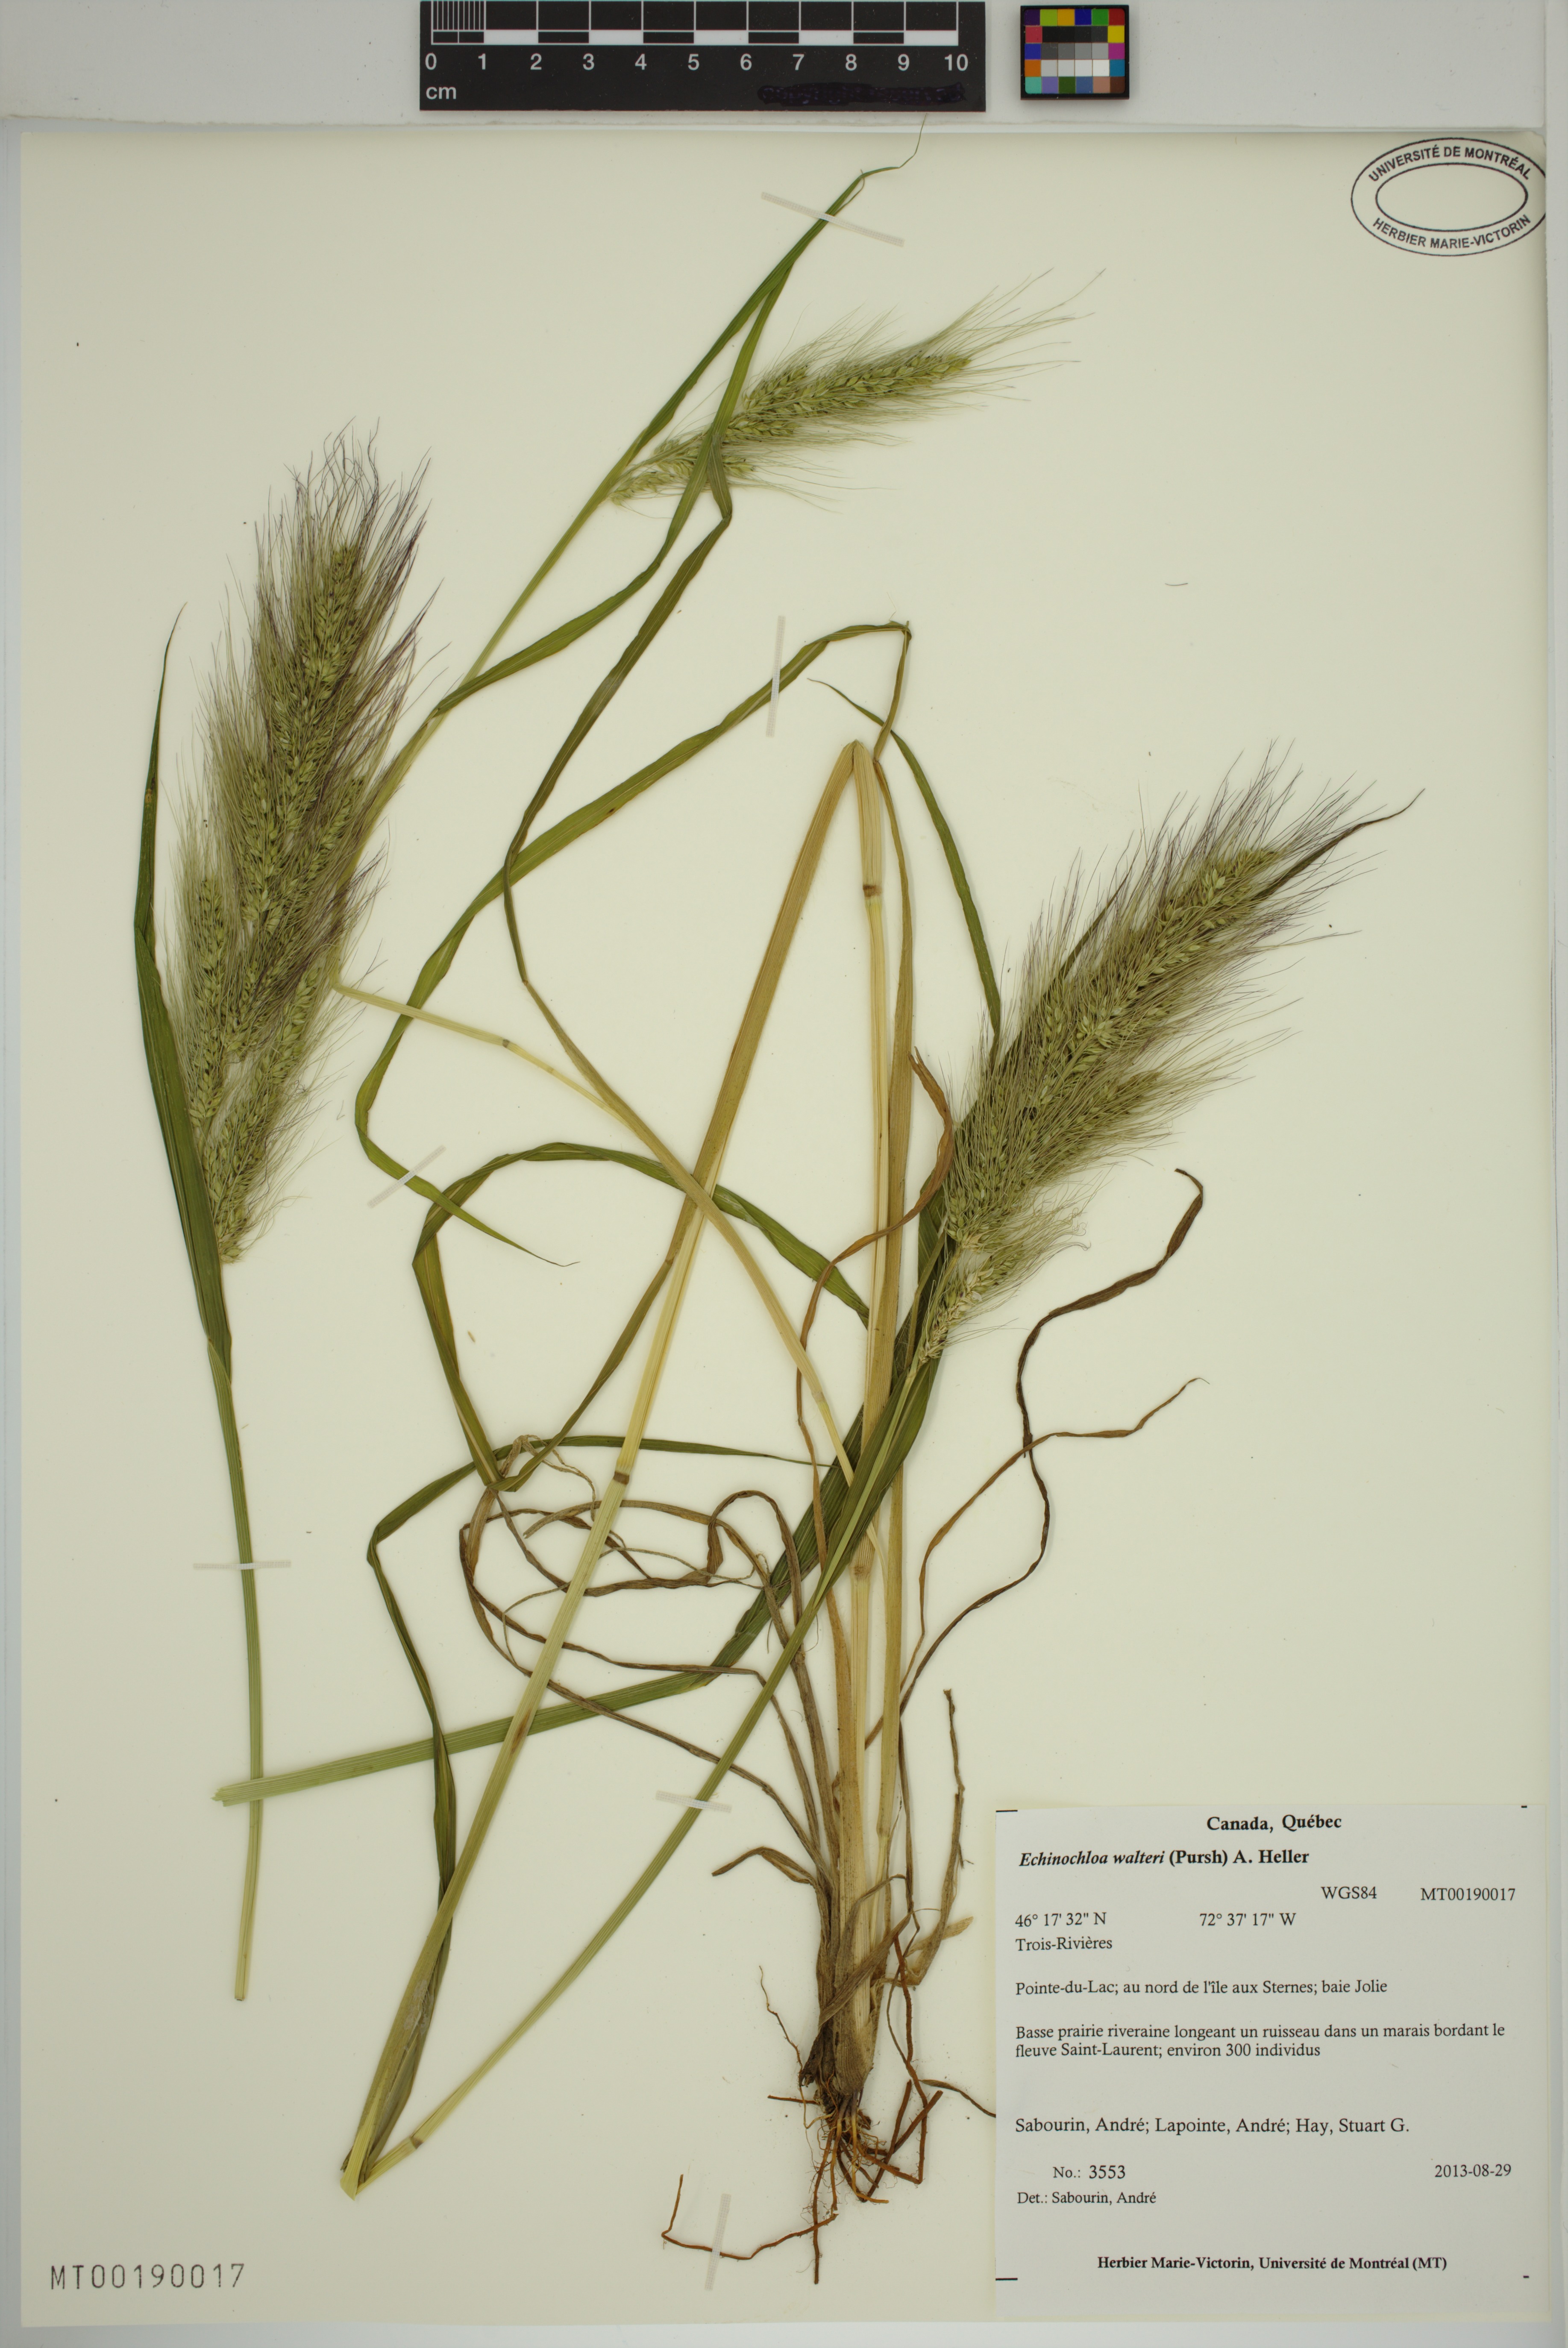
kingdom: Plantae
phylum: Tracheophyta
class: Liliopsida
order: Poales
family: Poaceae
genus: Echinochloa
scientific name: Echinochloa walteri
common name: Coast barnyard grass
